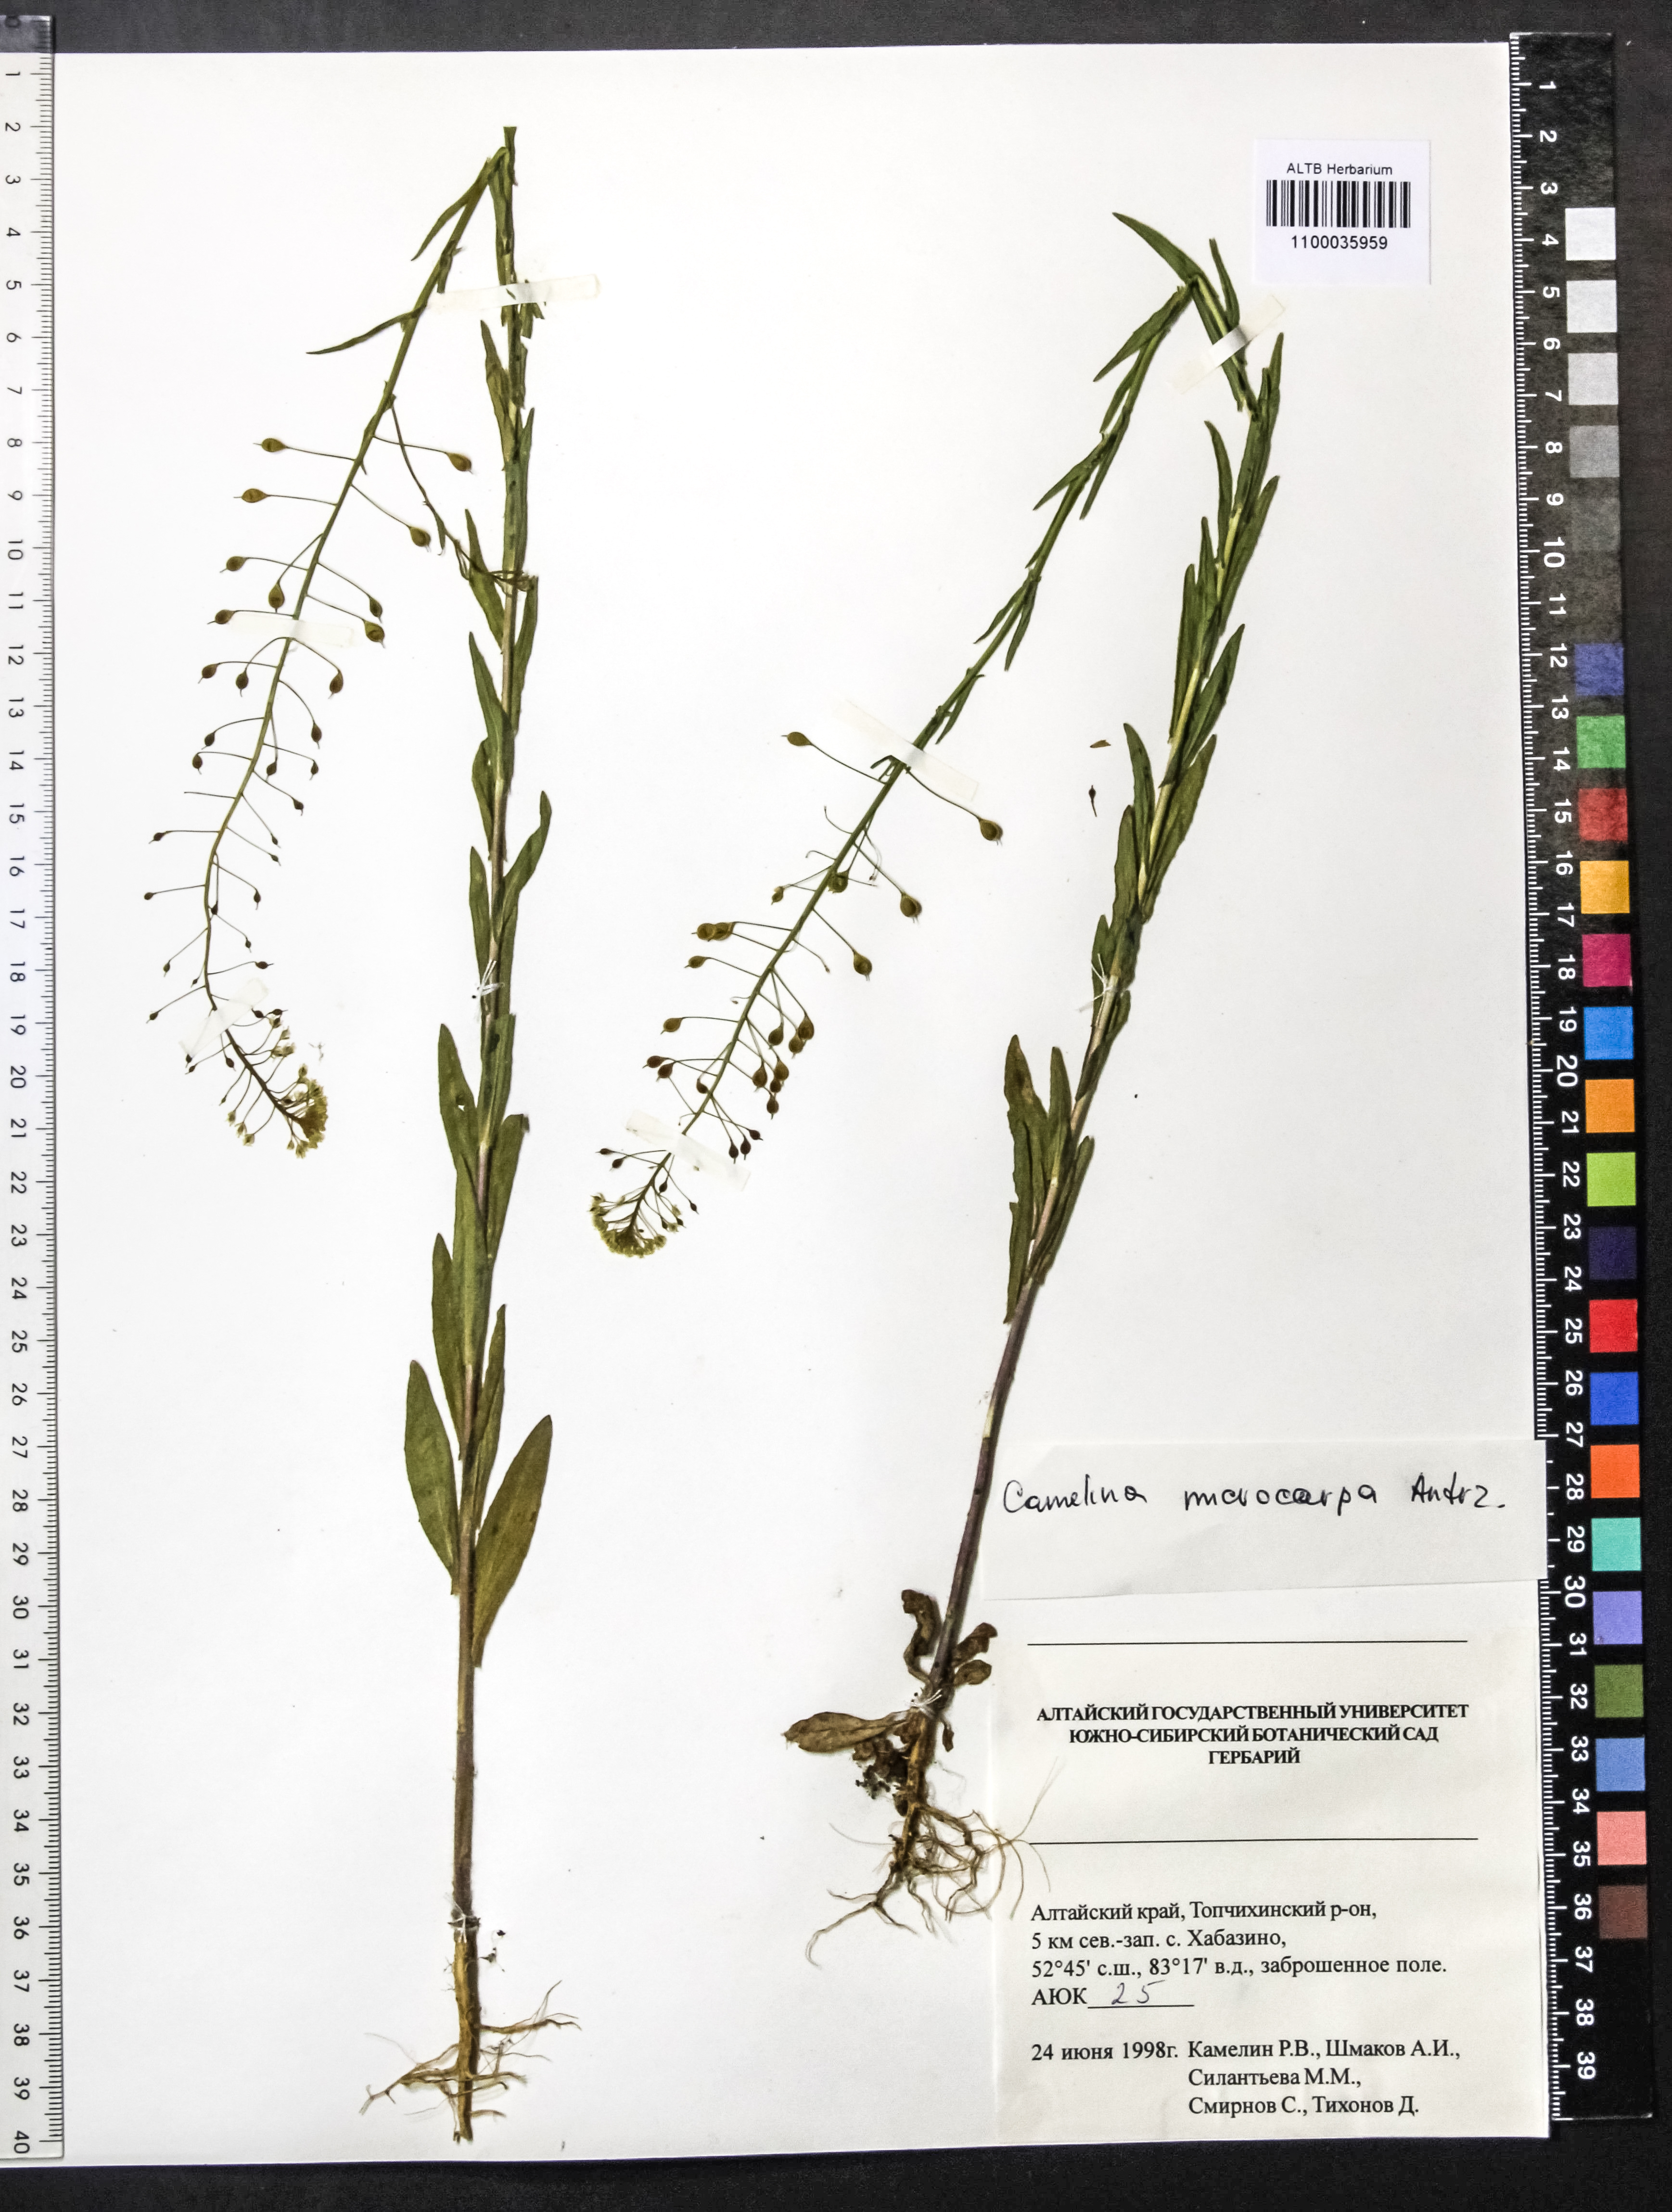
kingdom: Plantae
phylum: Tracheophyta
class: Magnoliopsida
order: Brassicales
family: Brassicaceae
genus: Camelina
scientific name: Camelina microcarpa
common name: Lesser gold-of-pleasure
